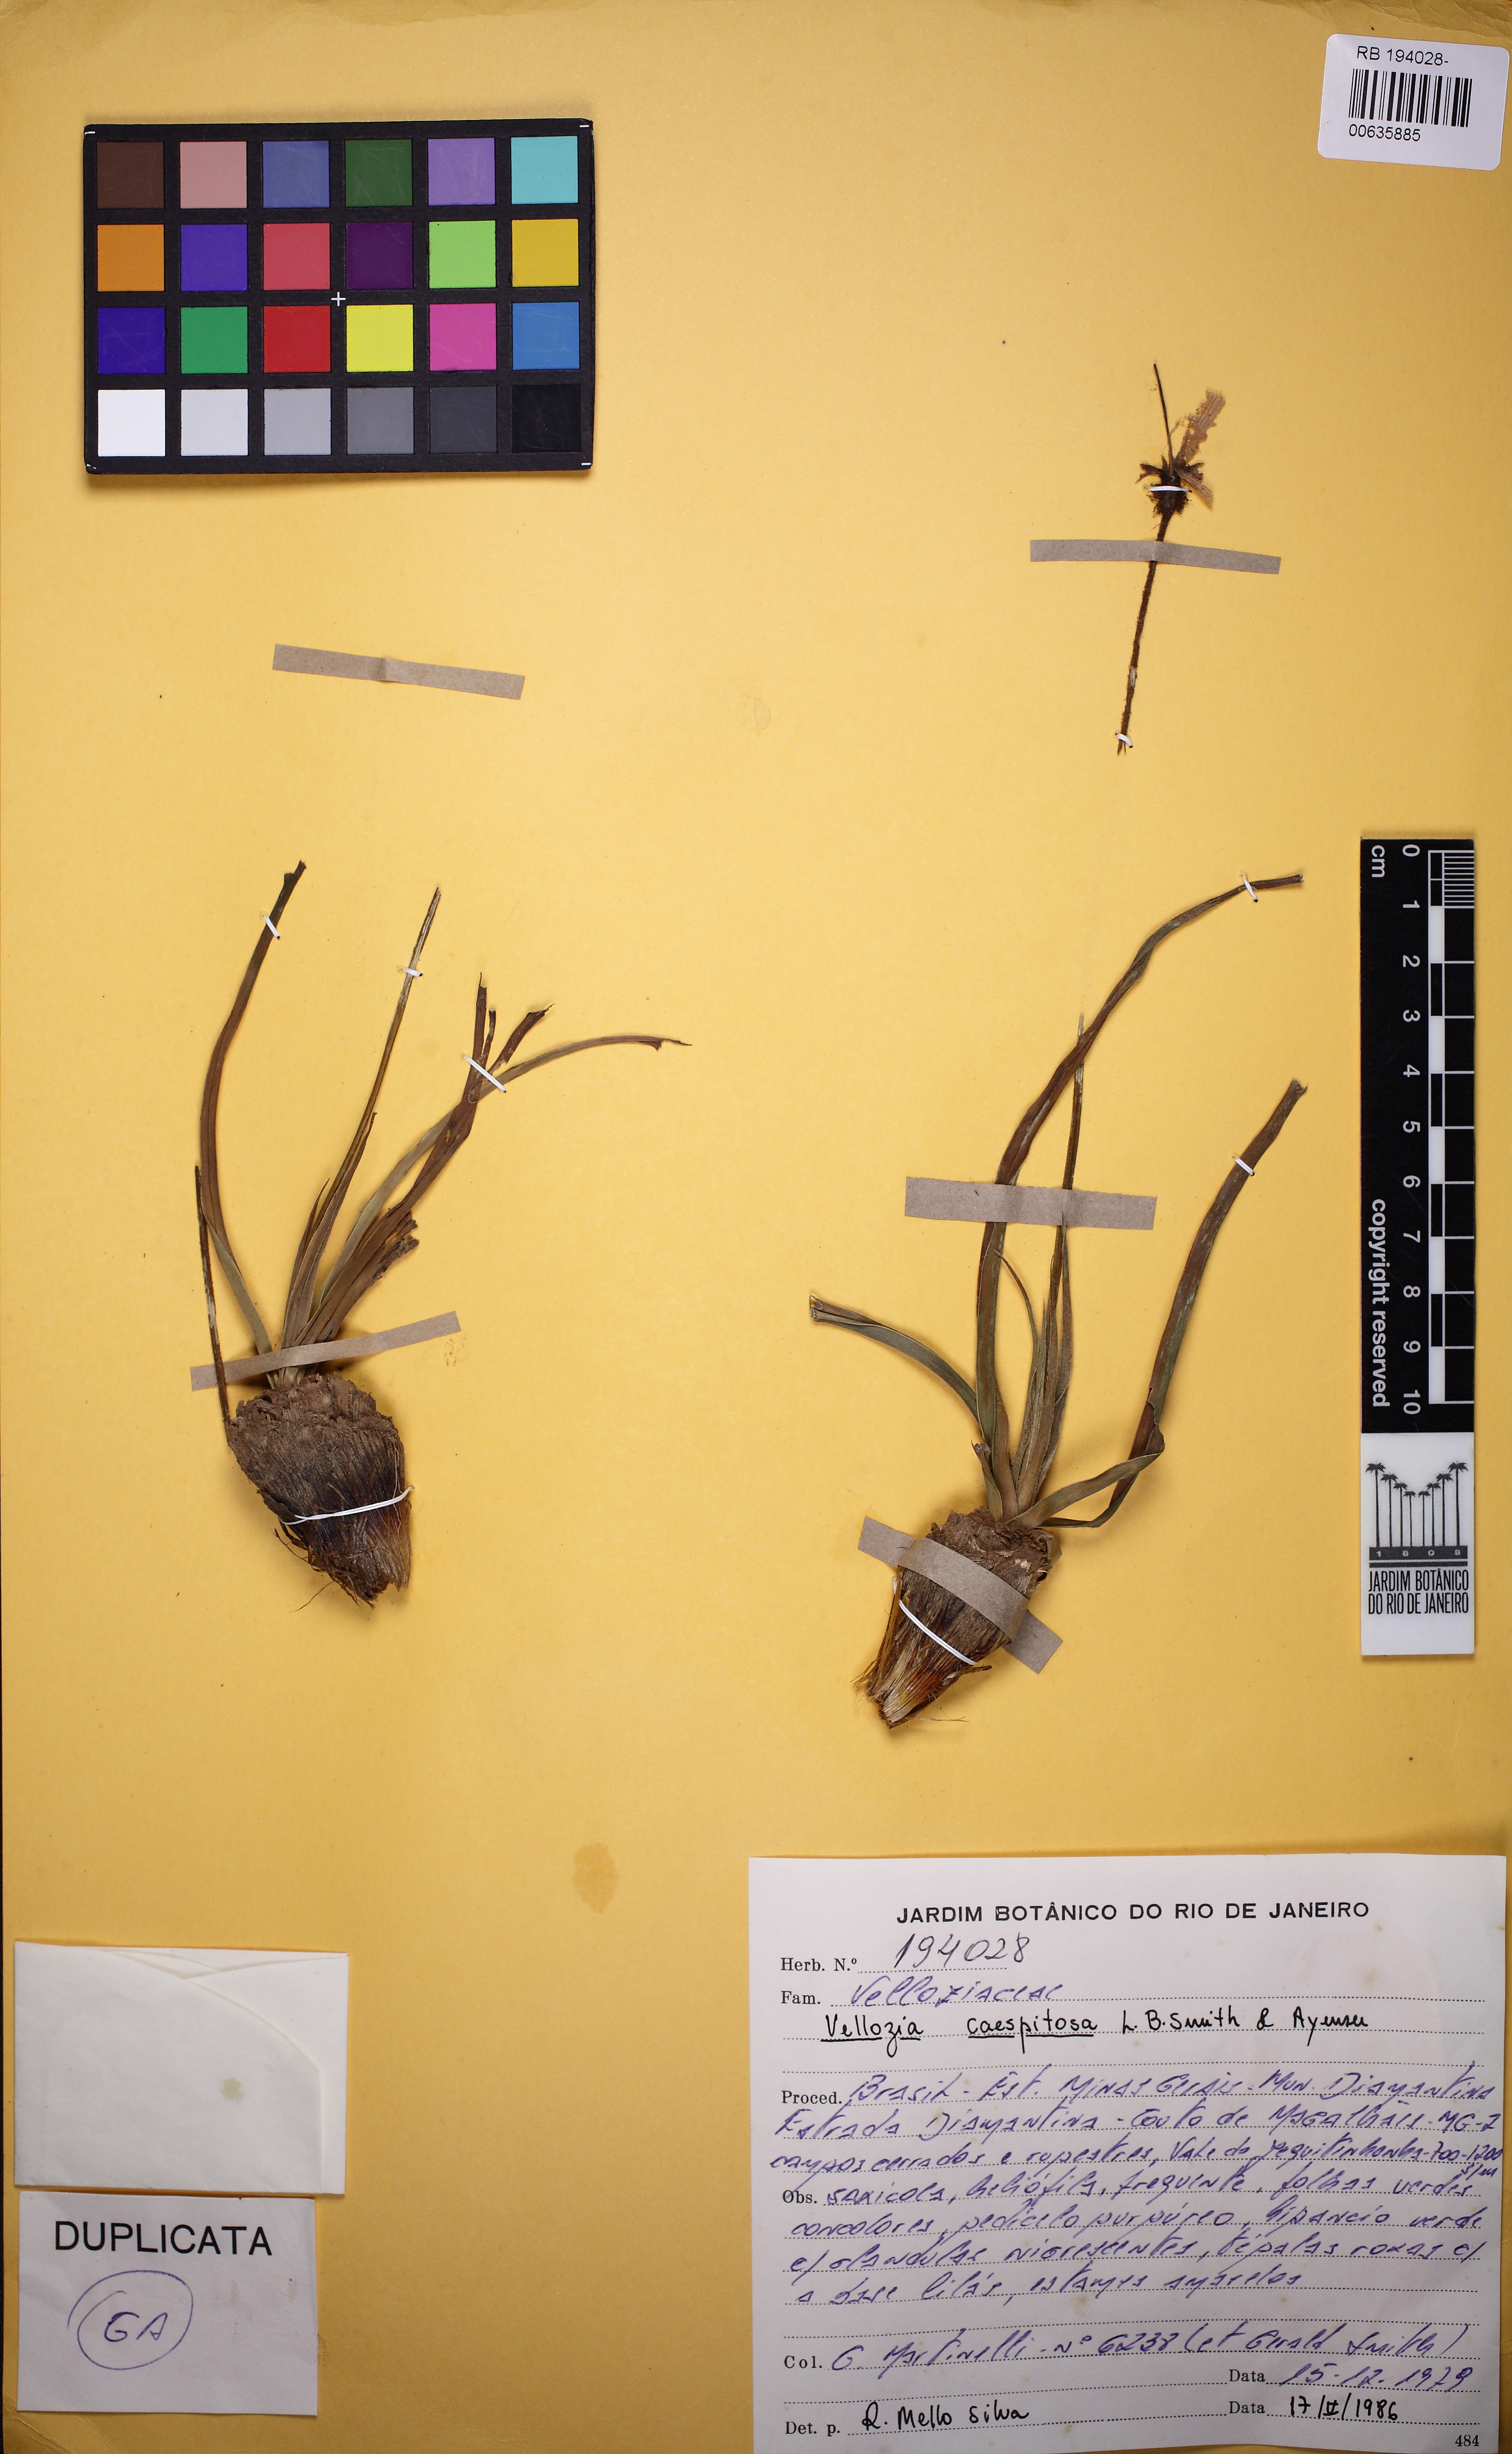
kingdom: Plantae
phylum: Tracheophyta
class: Liliopsida
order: Pandanales
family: Velloziaceae
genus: Vellozia
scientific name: Vellozia caespitosa
